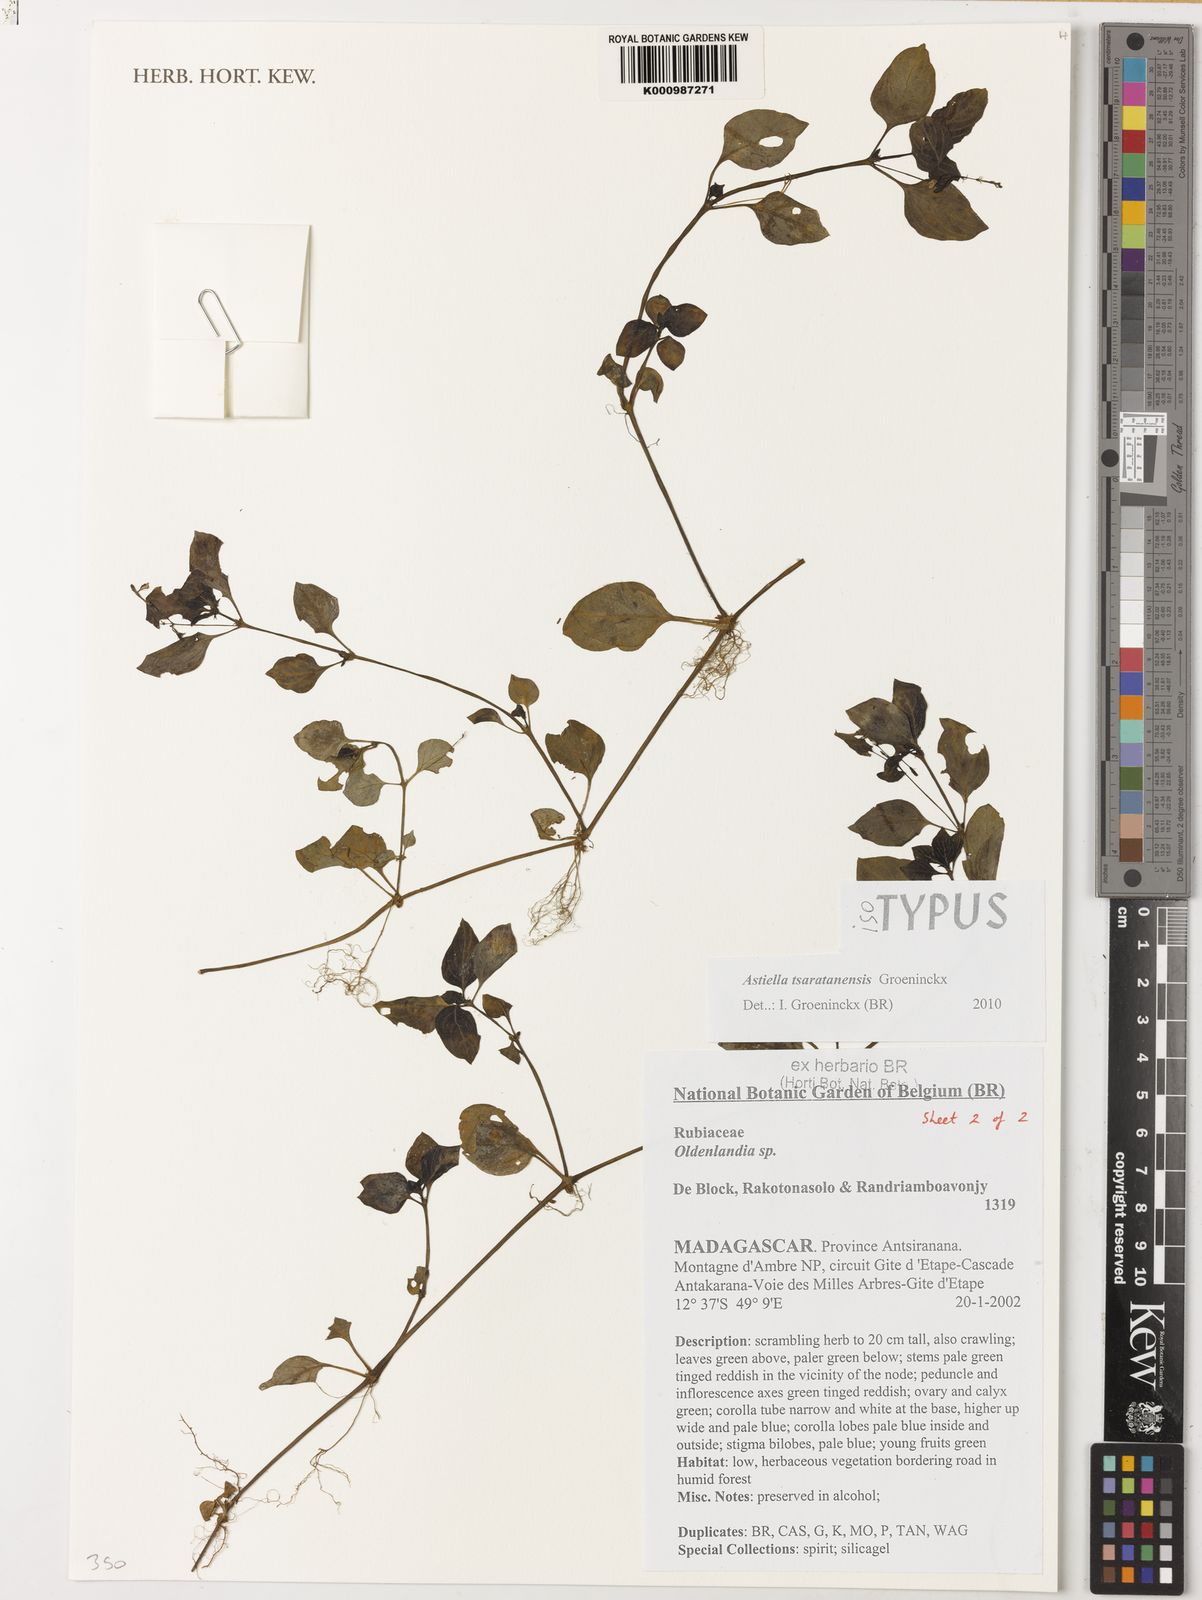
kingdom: Plantae
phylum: Tracheophyta
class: Magnoliopsida
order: Gentianales
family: Rubiaceae
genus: Astiella
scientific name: Astiella tsaratanensis
